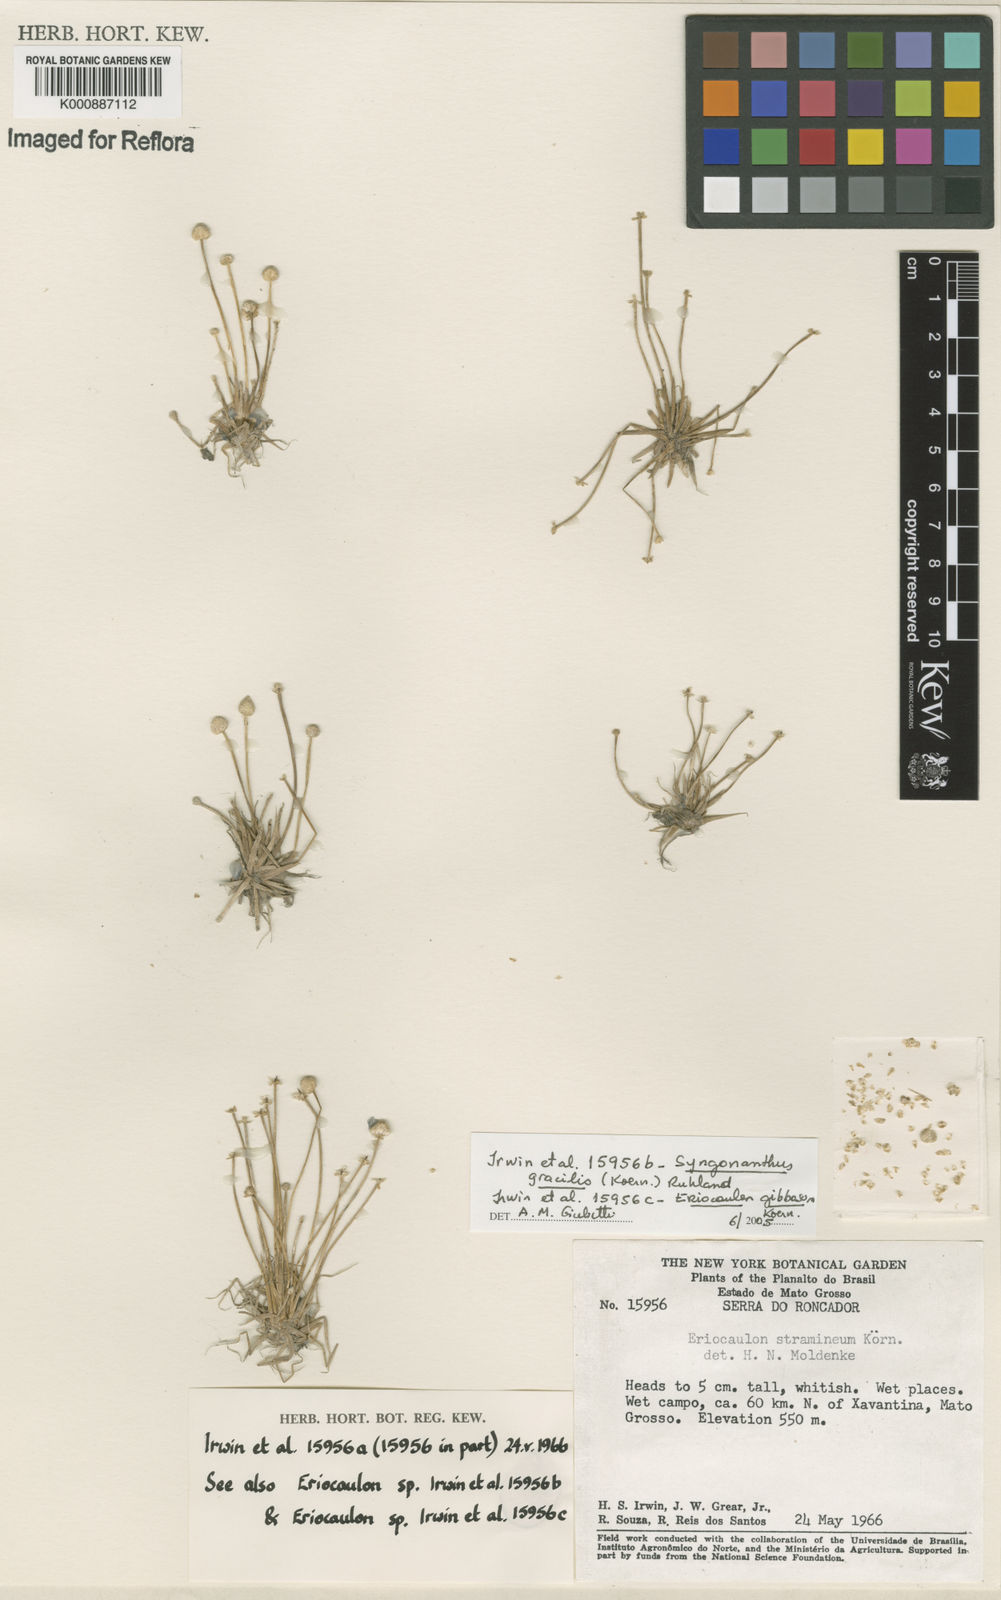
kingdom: Plantae
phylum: Tracheophyta
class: Liliopsida
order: Poales
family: Eriocaulaceae
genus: Eriocaulon
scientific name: Eriocaulon
